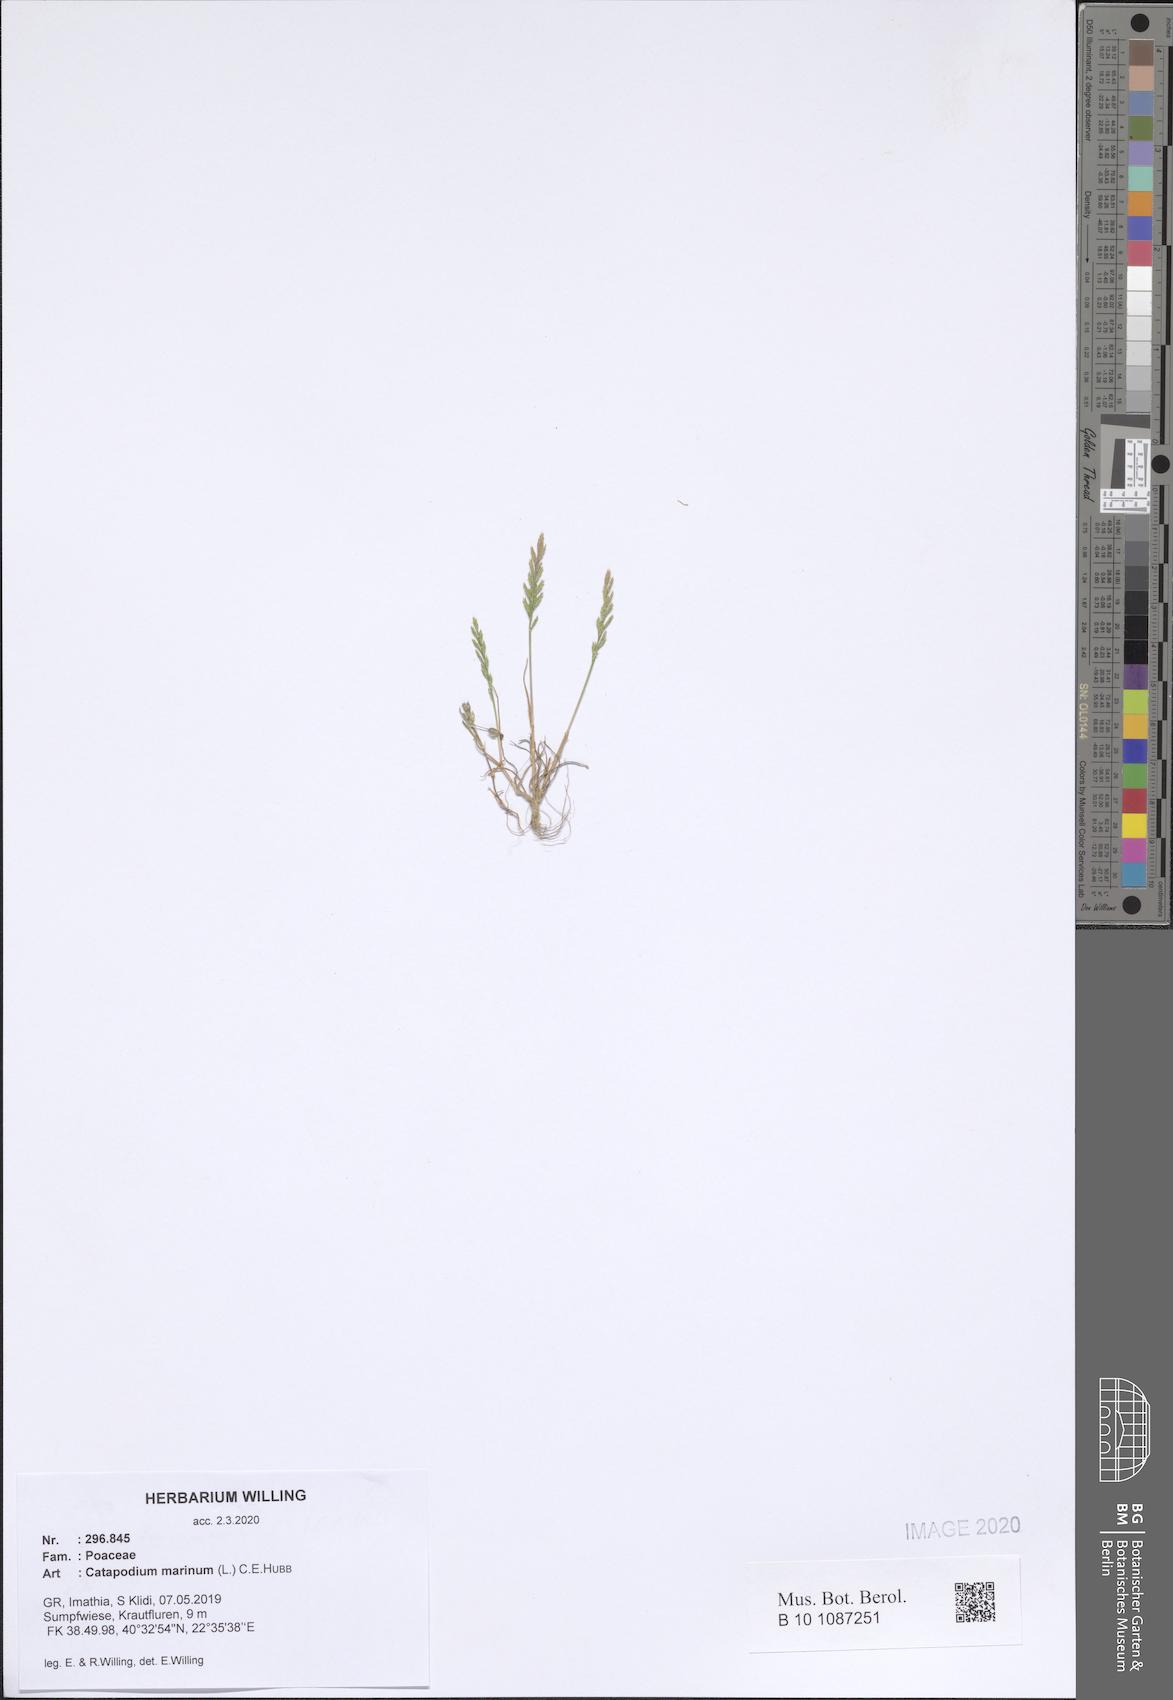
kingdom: Plantae
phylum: Tracheophyta
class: Liliopsida
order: Poales
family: Poaceae
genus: Catapodium
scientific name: Catapodium marinum
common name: Sea fern-grass
